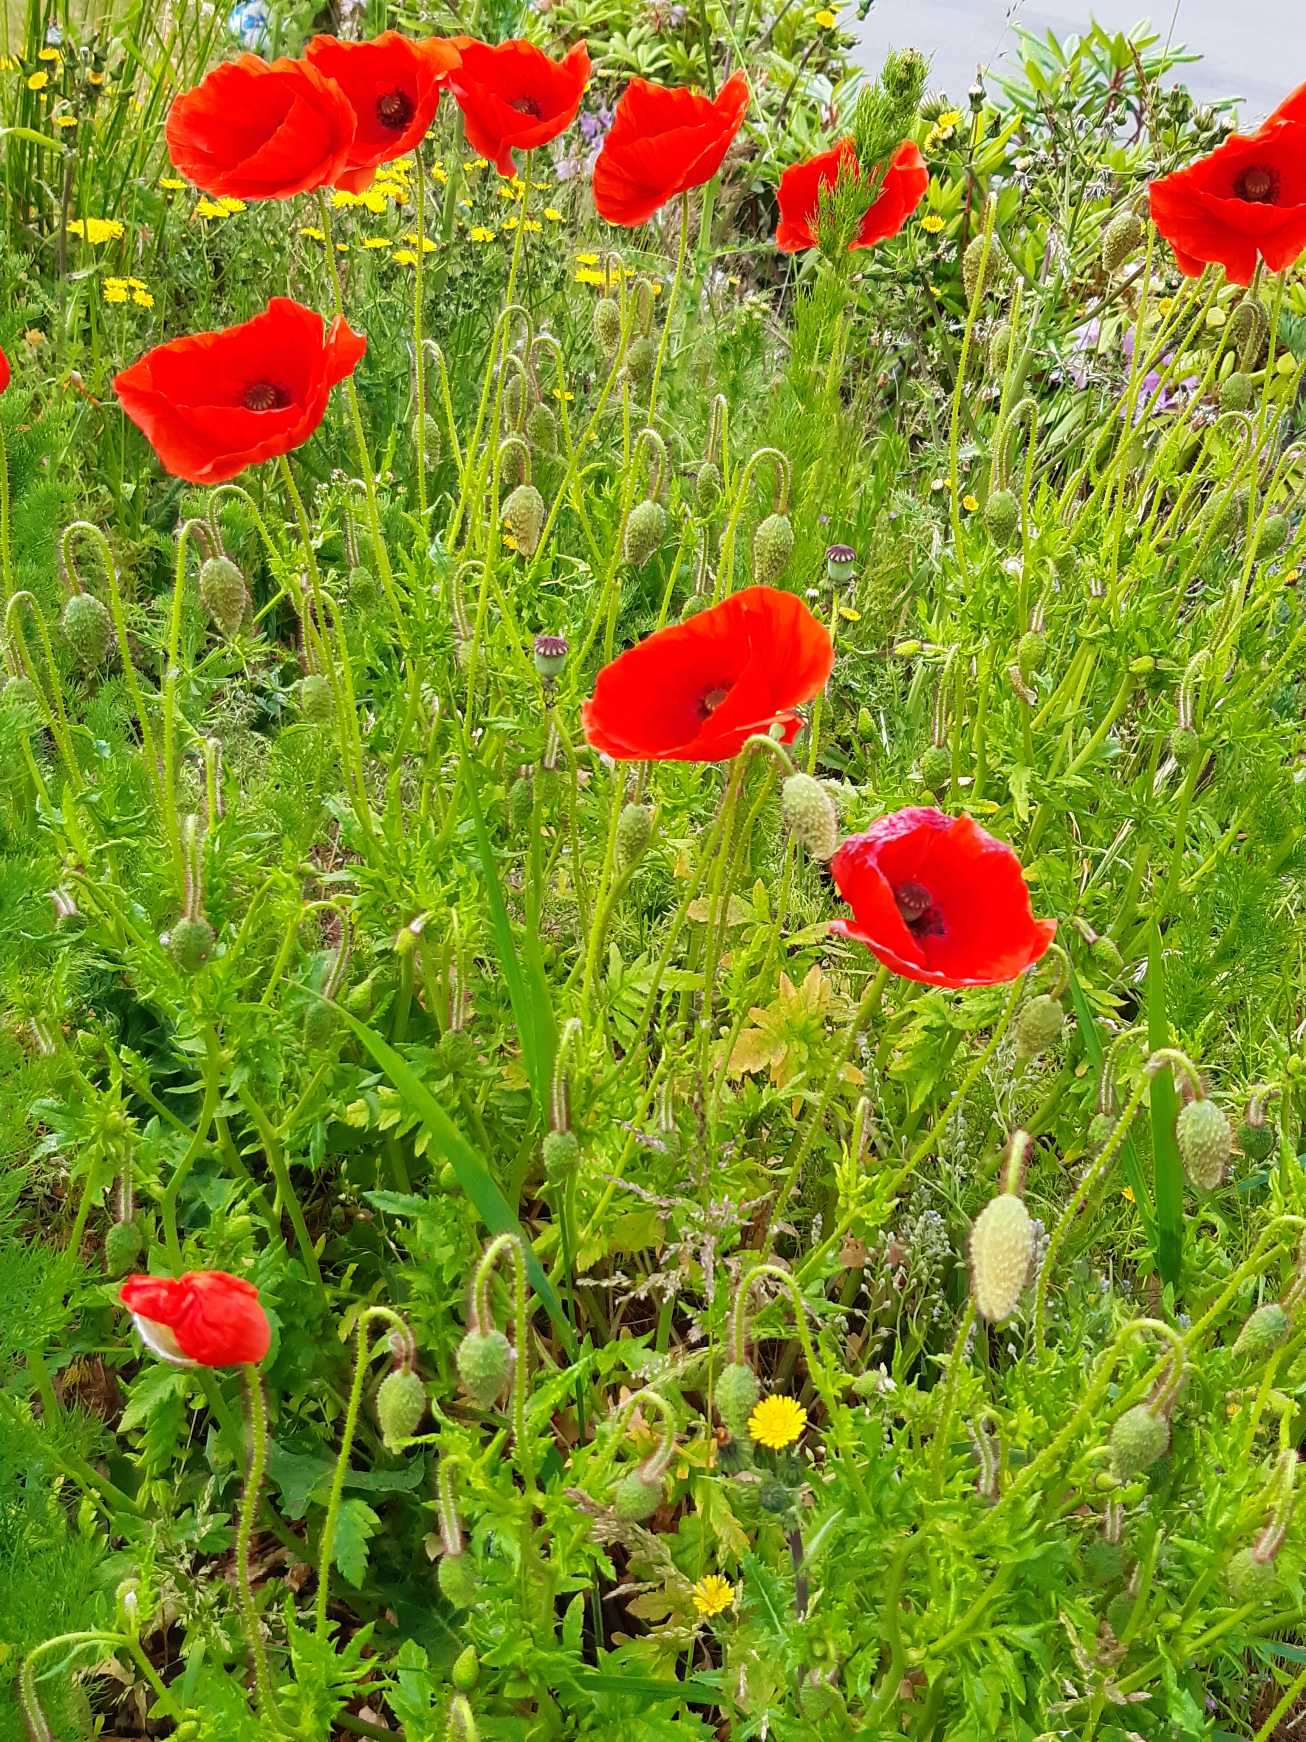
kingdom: Plantae
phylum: Tracheophyta
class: Magnoliopsida
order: Ranunculales
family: Papaveraceae
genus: Papaver
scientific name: Papaver rhoeas
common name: Korn-valmue
